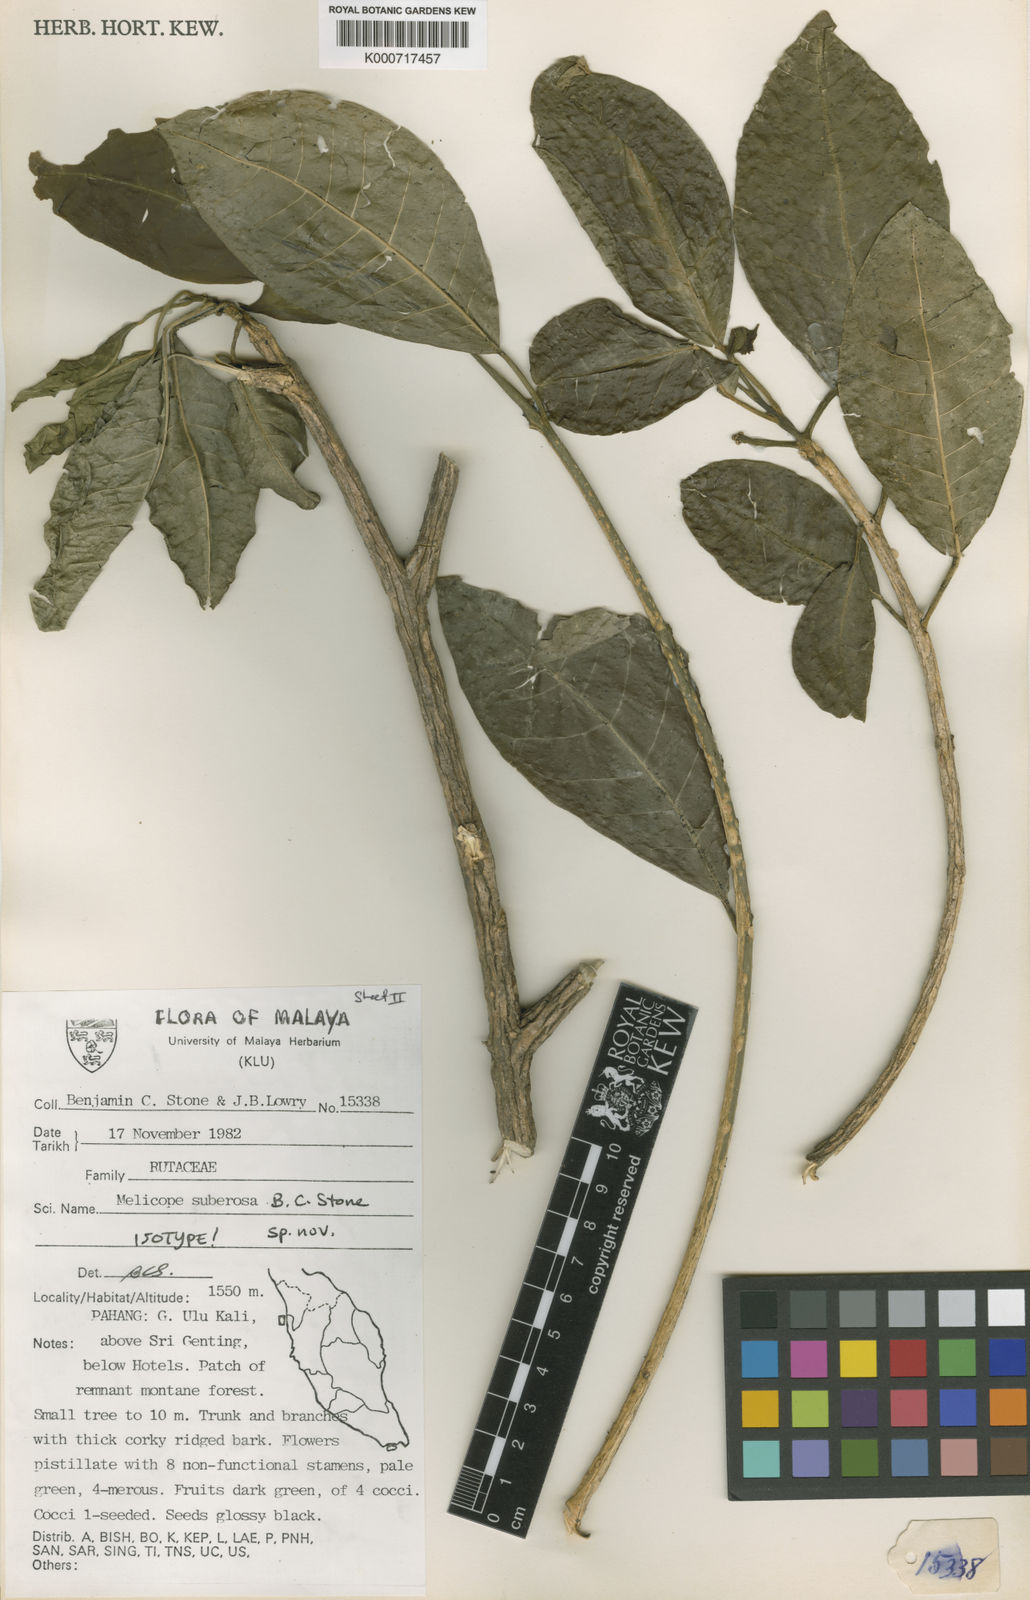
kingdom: Plantae
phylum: Tracheophyta
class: Magnoliopsida
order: Sapindales
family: Rutaceae
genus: Melicope
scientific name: Melicope suberosa
